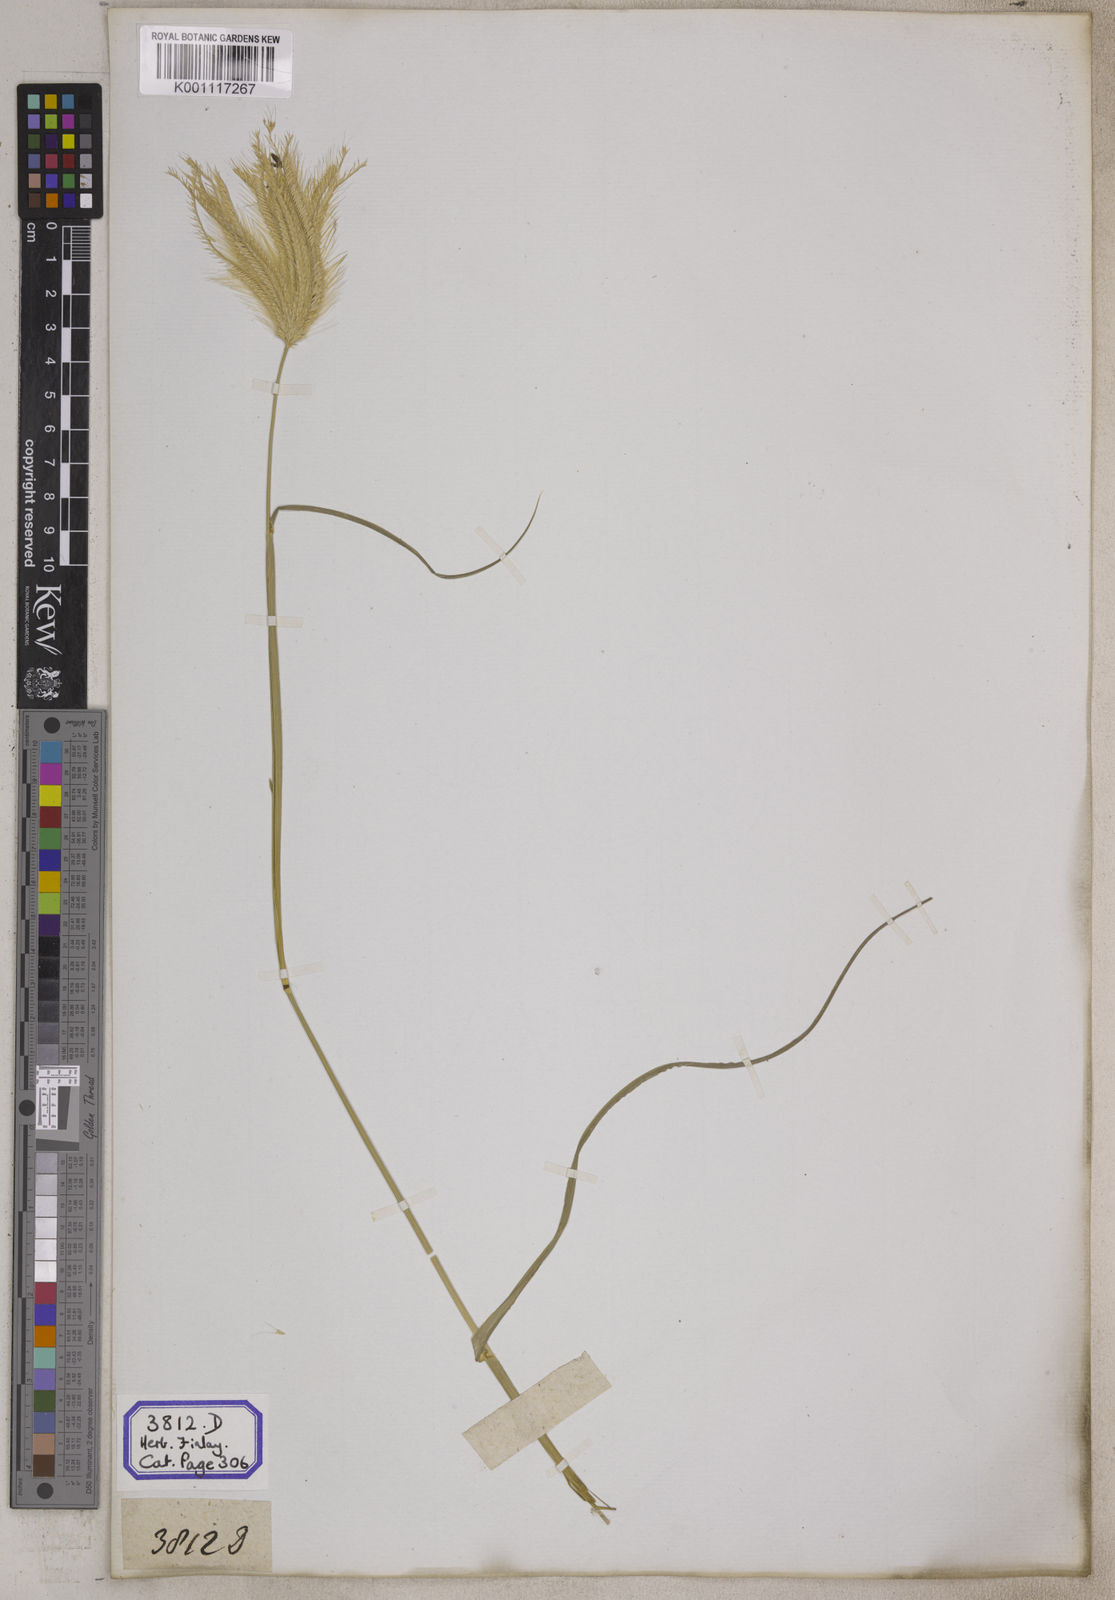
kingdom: Plantae
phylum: Tracheophyta
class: Liliopsida
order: Poales
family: Poaceae
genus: Chloris
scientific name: Chloris
